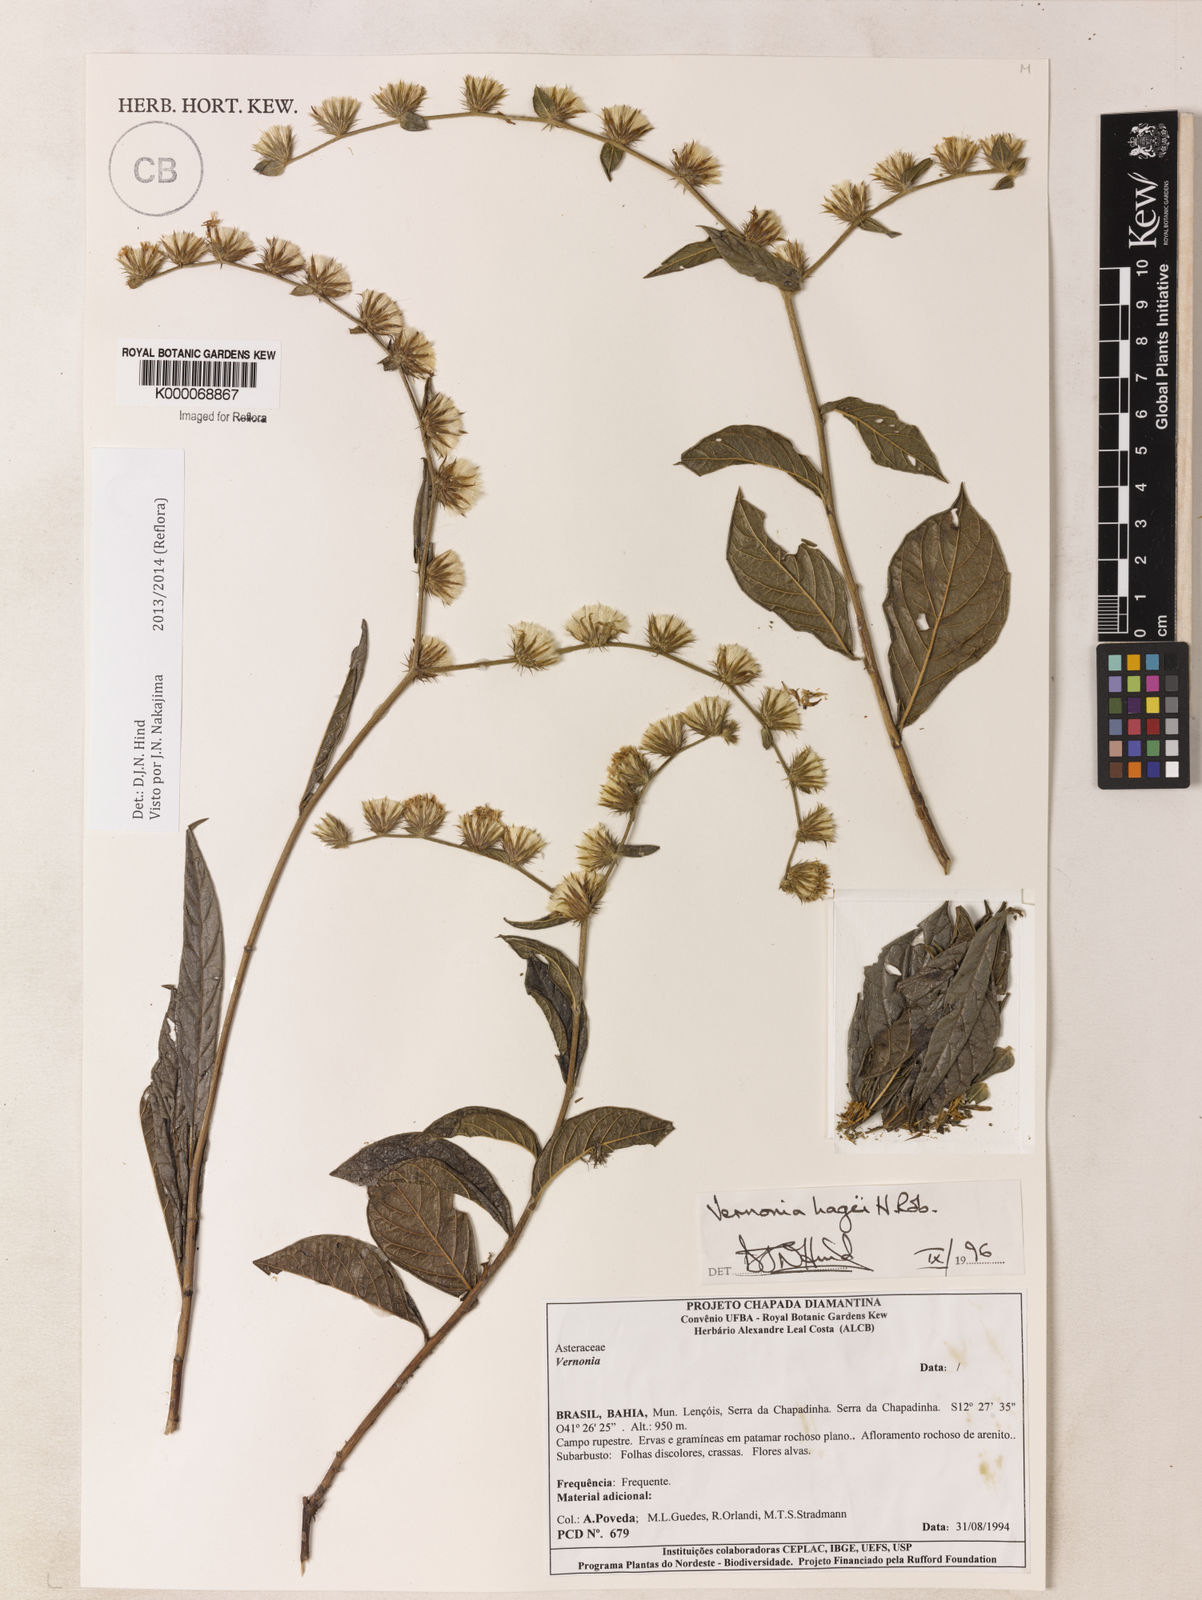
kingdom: Plantae
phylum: Tracheophyta
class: Magnoliopsida
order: Asterales
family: Asteraceae
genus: Lepidaploa
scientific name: Lepidaploa hagei
